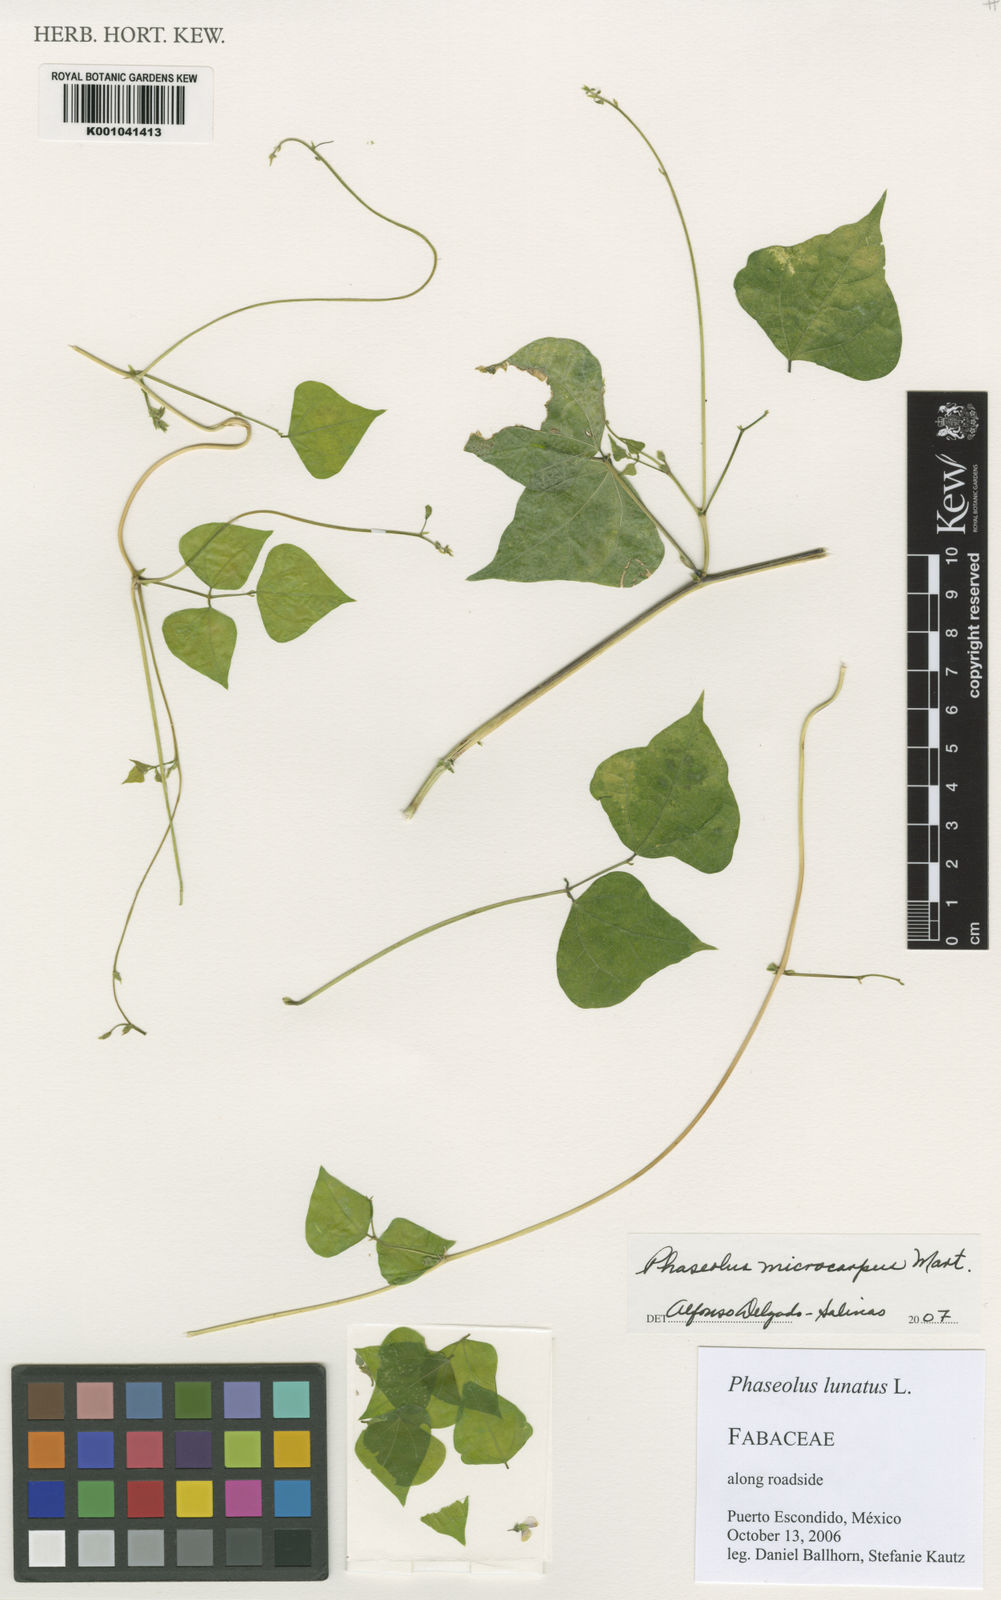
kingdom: Plantae
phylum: Tracheophyta
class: Magnoliopsida
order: Fabales
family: Fabaceae
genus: Phaseolus
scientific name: Phaseolus microcarpus
